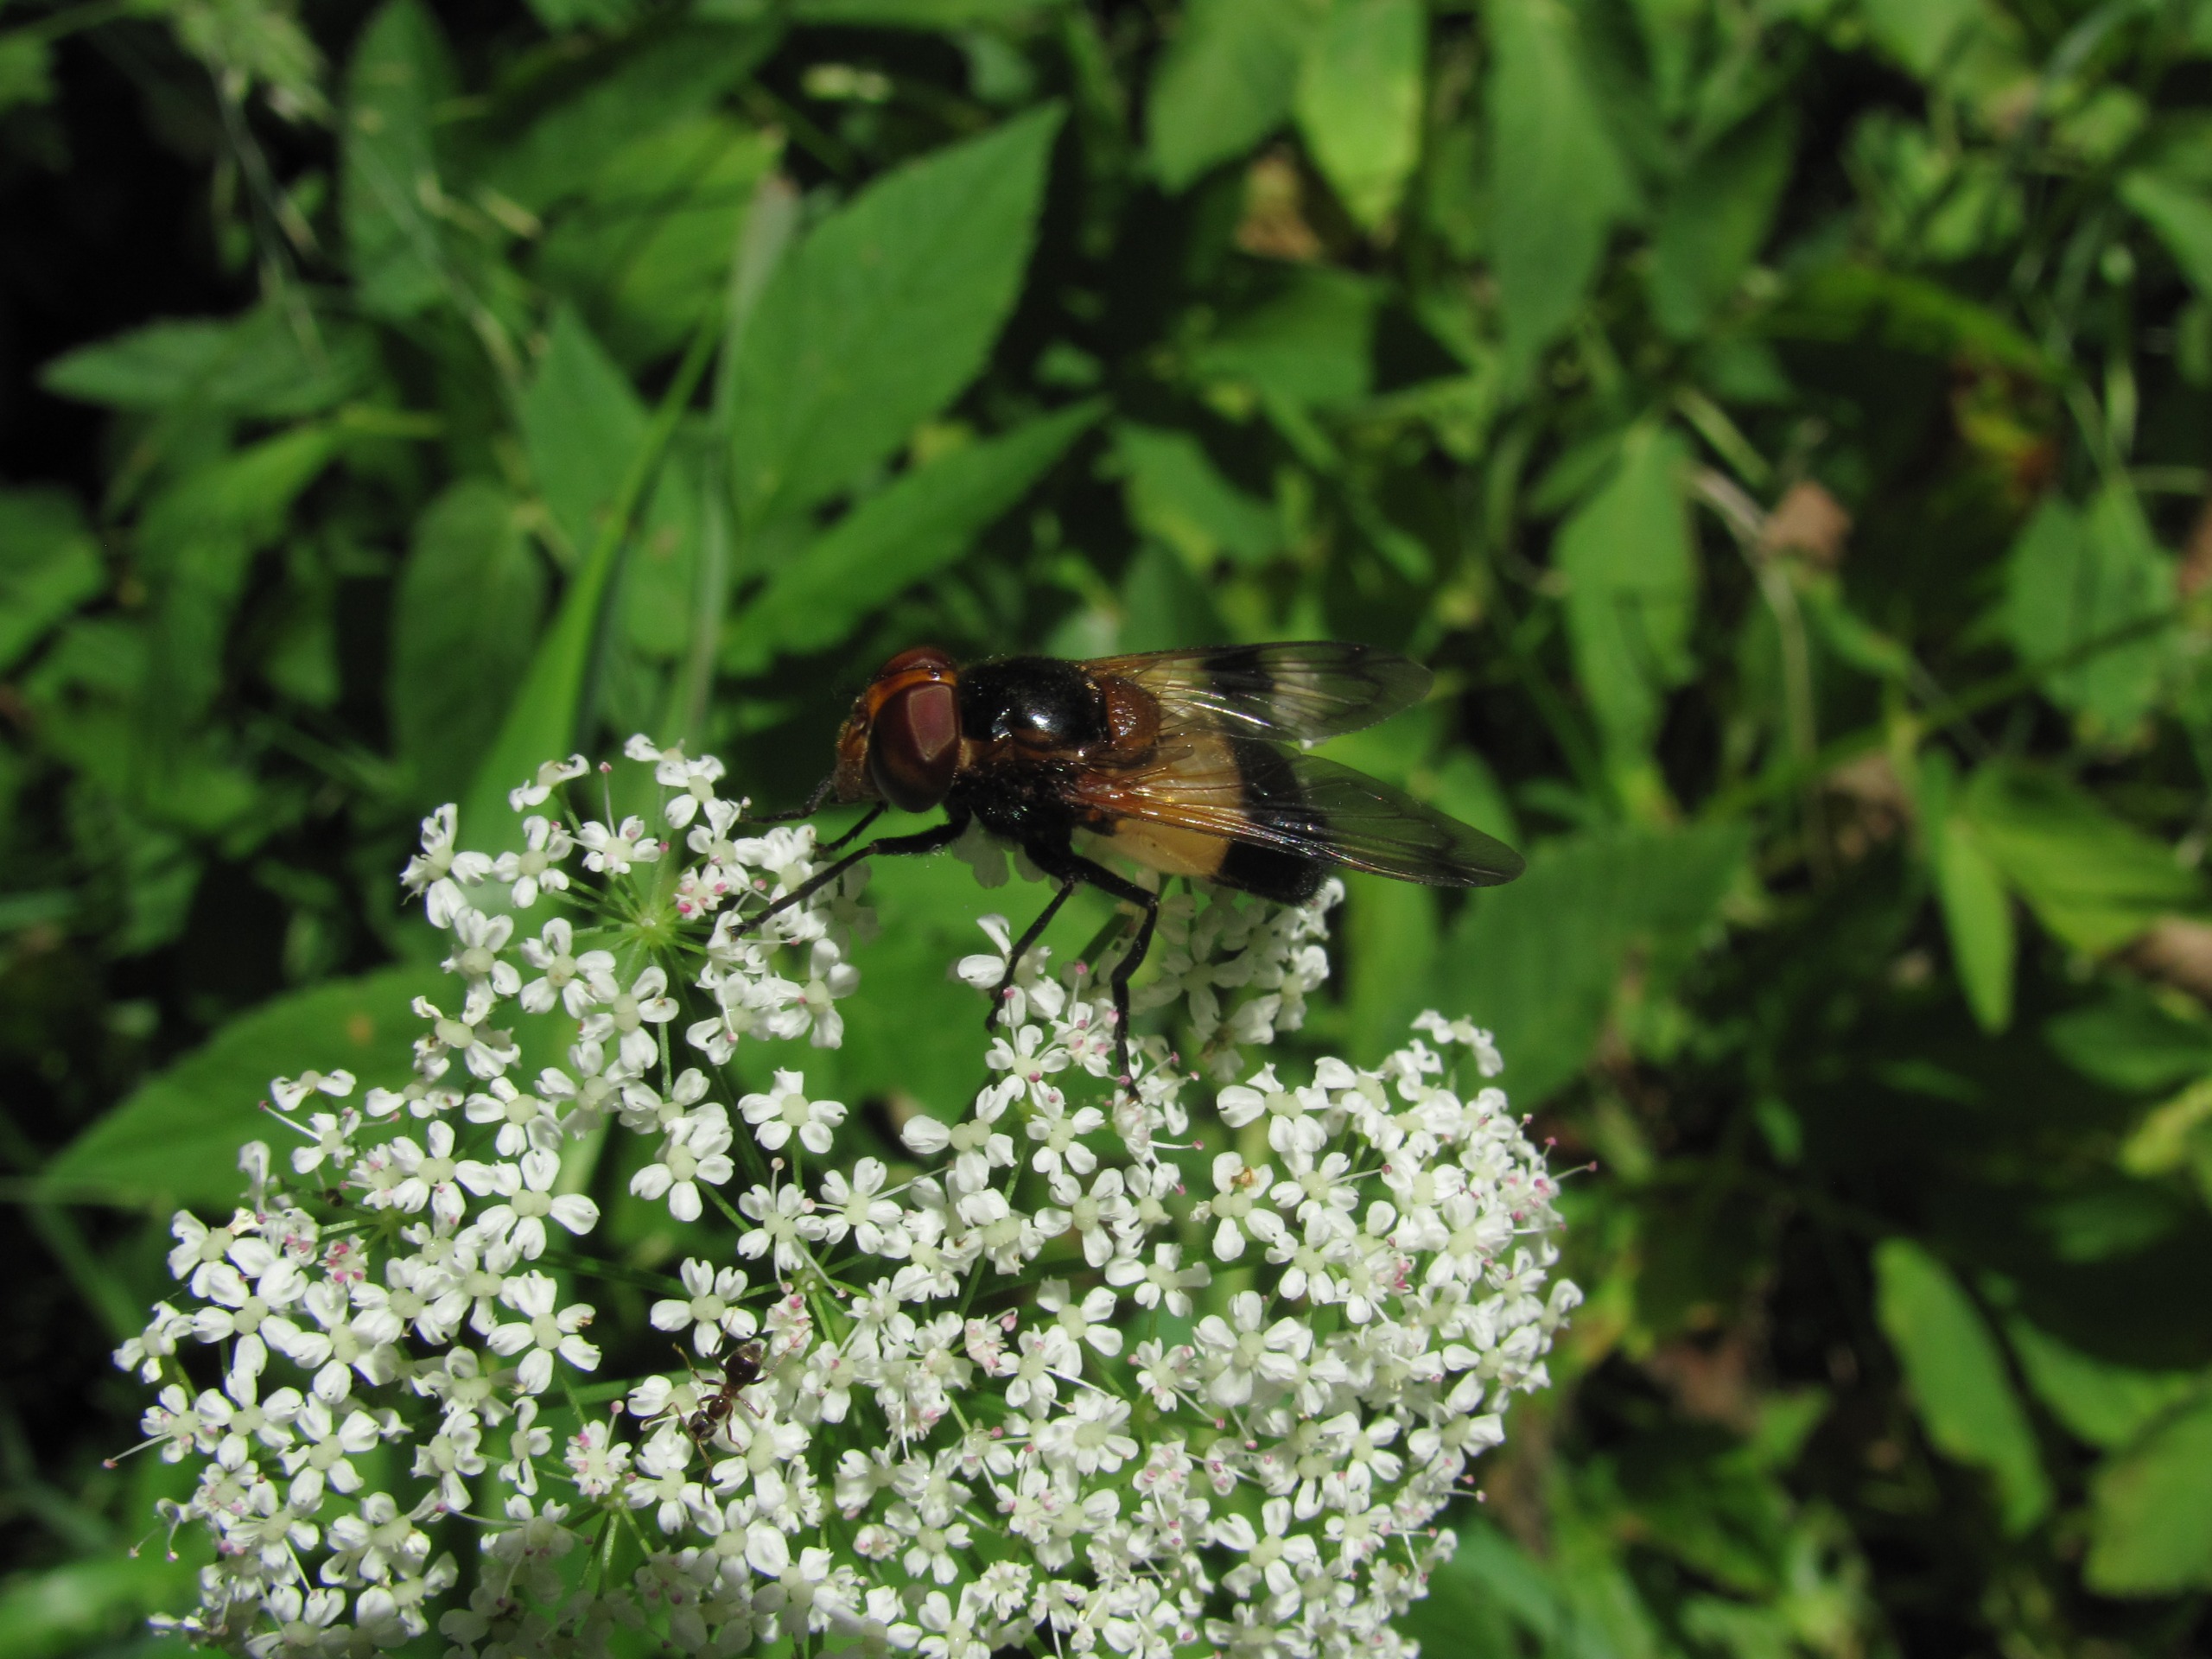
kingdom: Animalia
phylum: Arthropoda
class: Insecta
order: Diptera
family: Syrphidae
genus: Volucella
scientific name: Volucella pellucens
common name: Hvidbåndet humlesvirreflue
